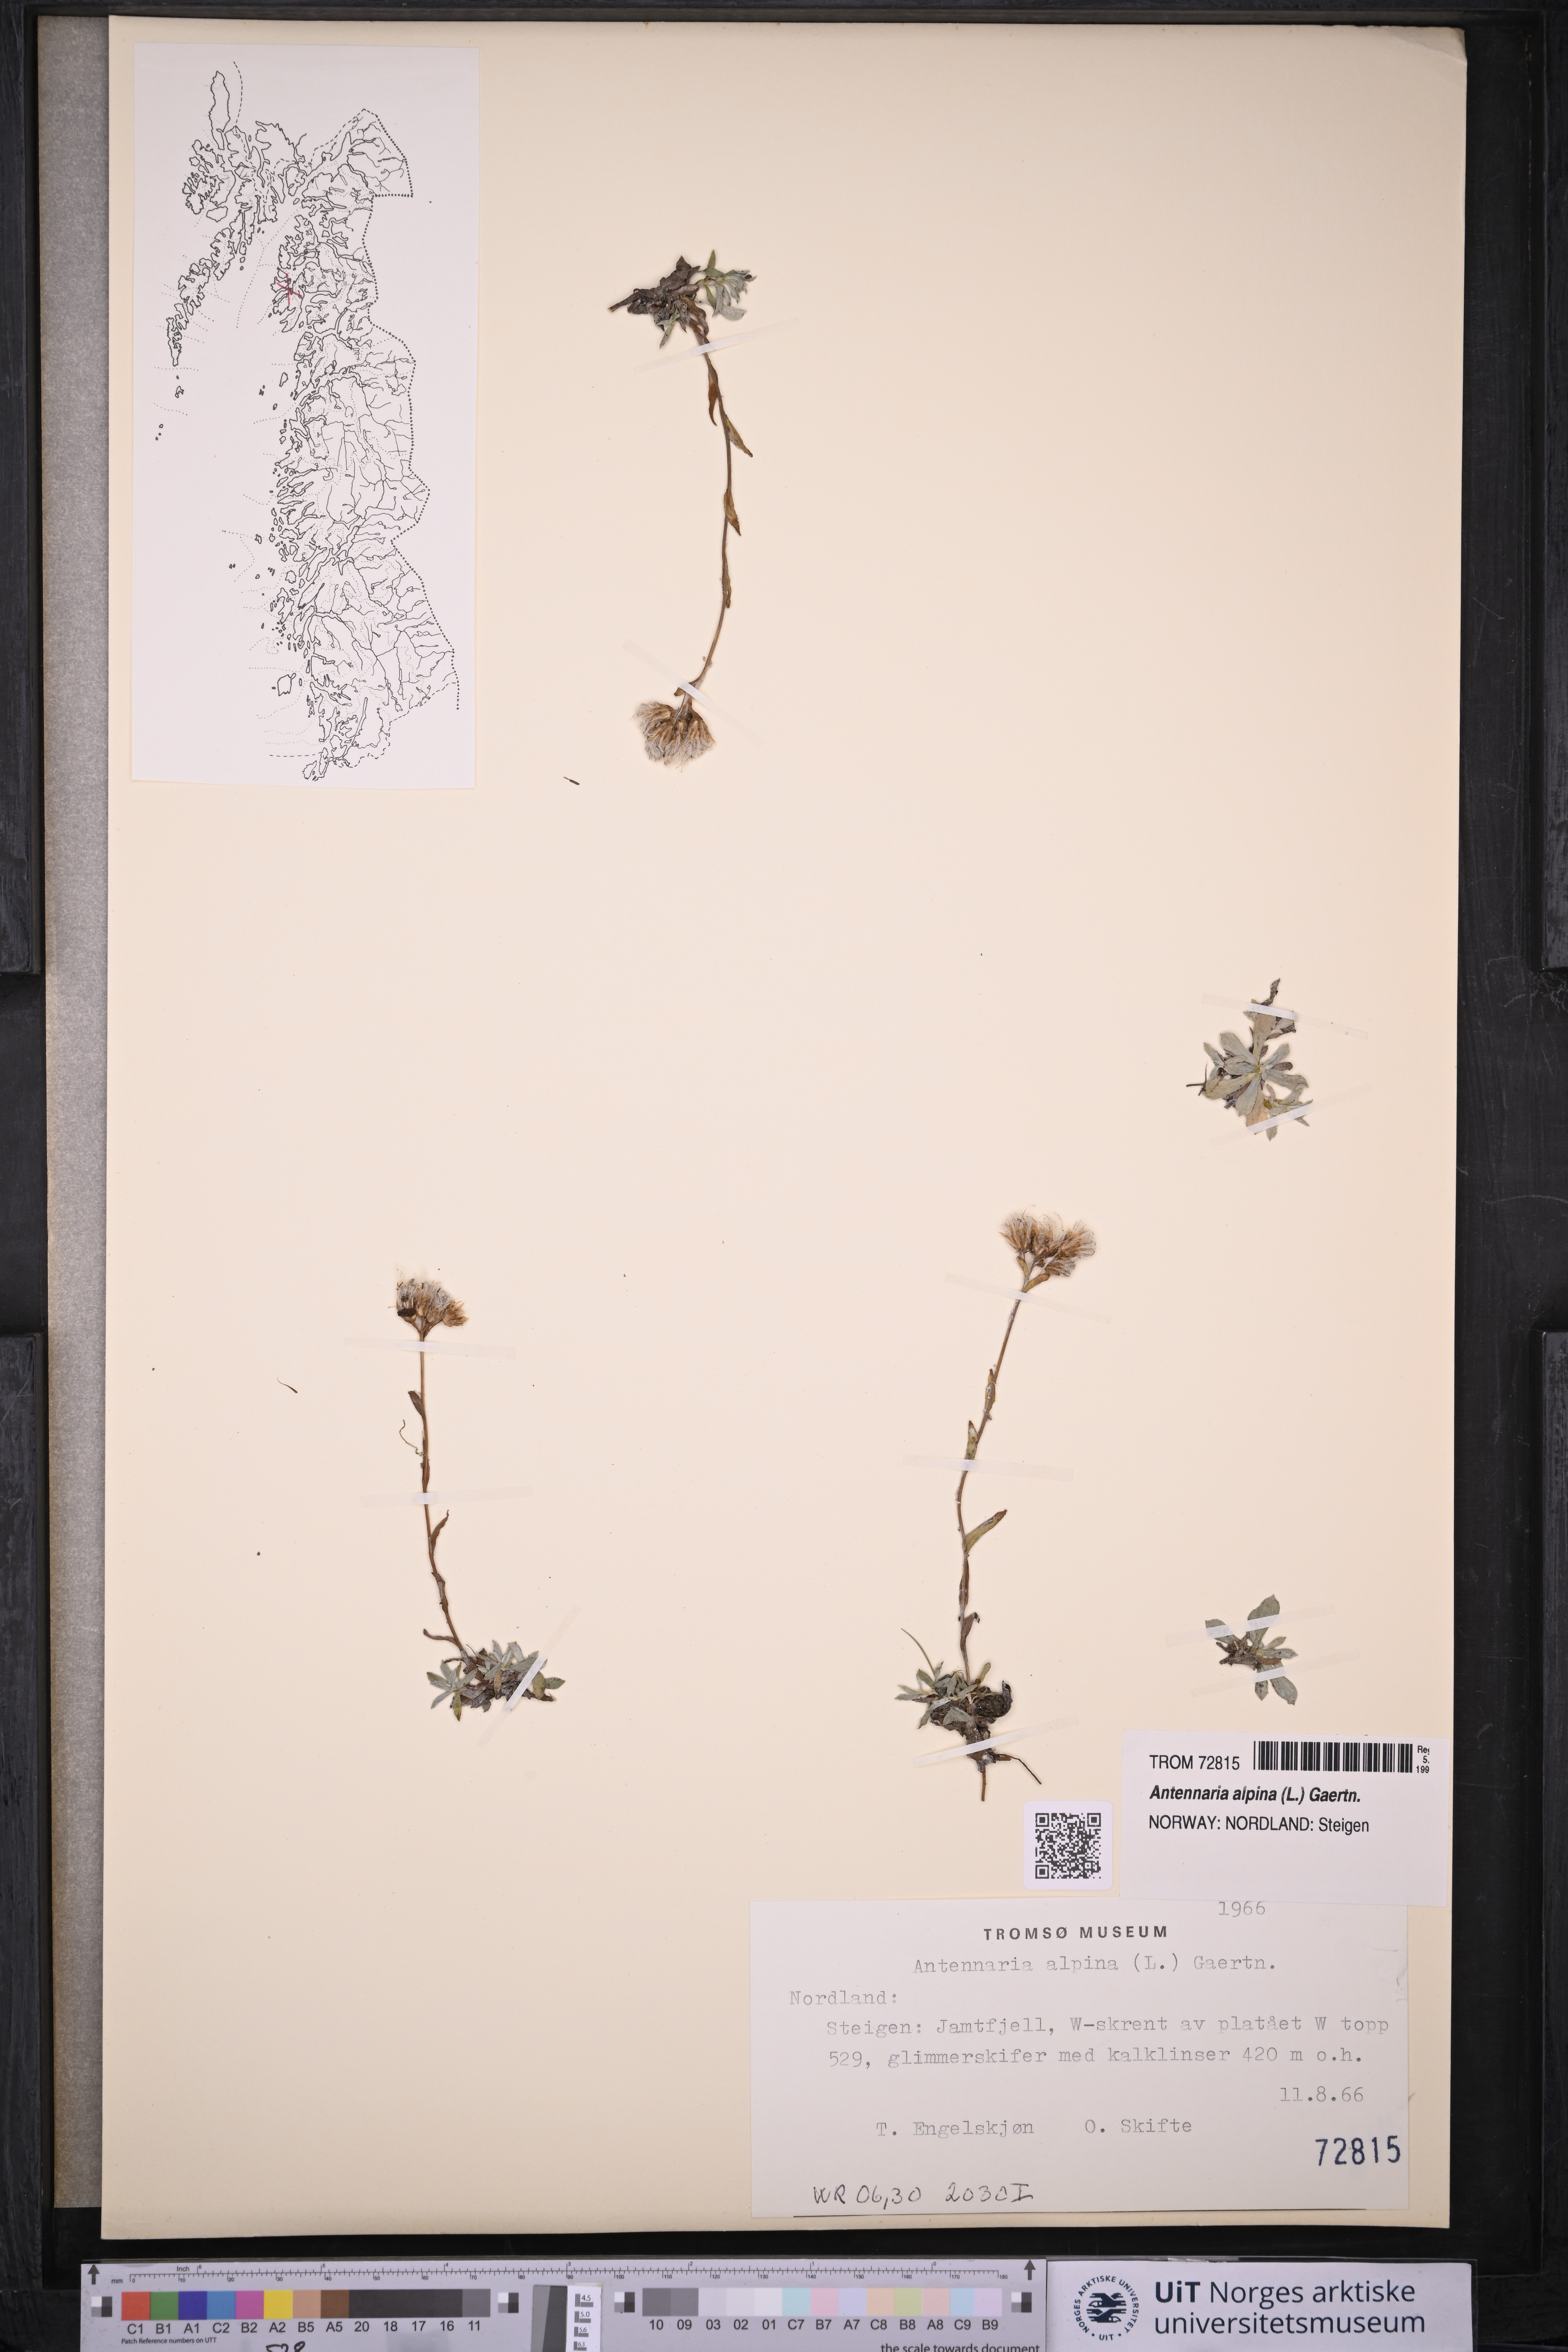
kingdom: Plantae
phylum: Tracheophyta
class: Magnoliopsida
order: Asterales
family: Asteraceae
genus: Antennaria
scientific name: Antennaria alpina
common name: Alpine pussytoes
